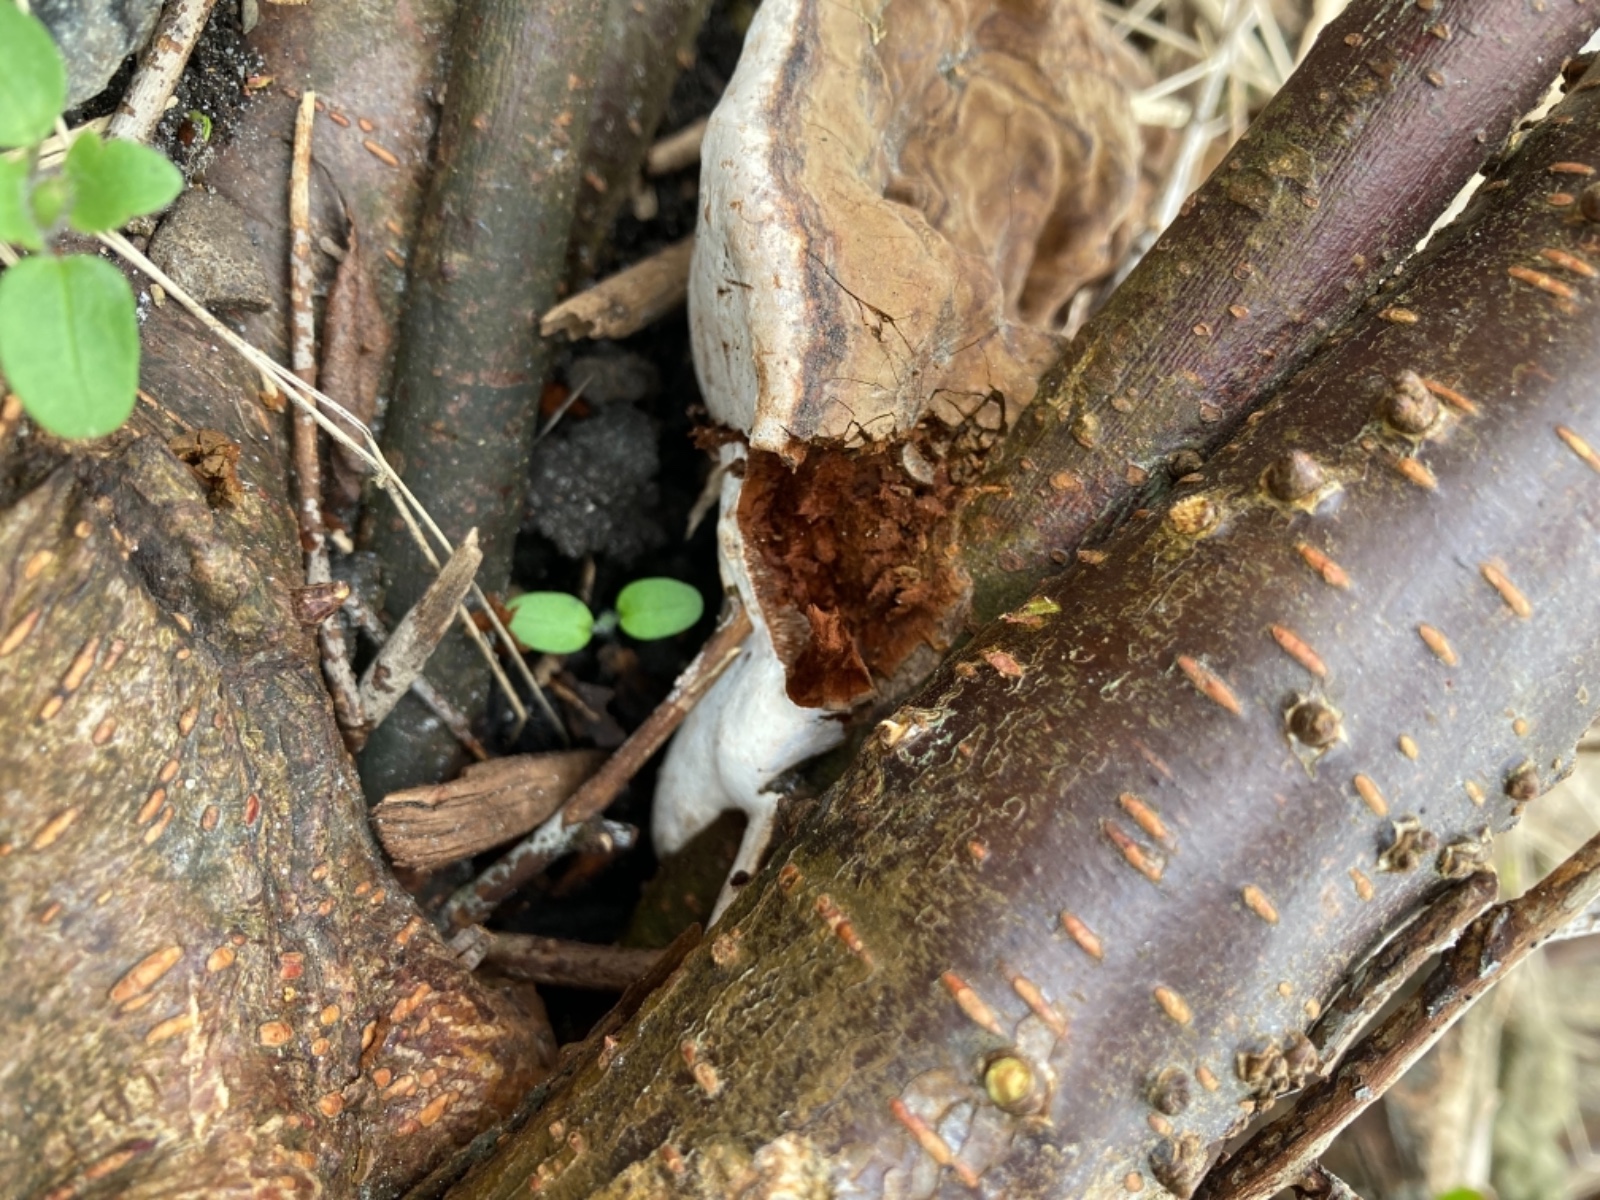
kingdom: Fungi
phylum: Basidiomycota
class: Agaricomycetes
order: Polyporales
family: Polyporaceae
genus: Ganoderma
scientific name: Ganoderma applanatum
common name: flad lakporesvamp
